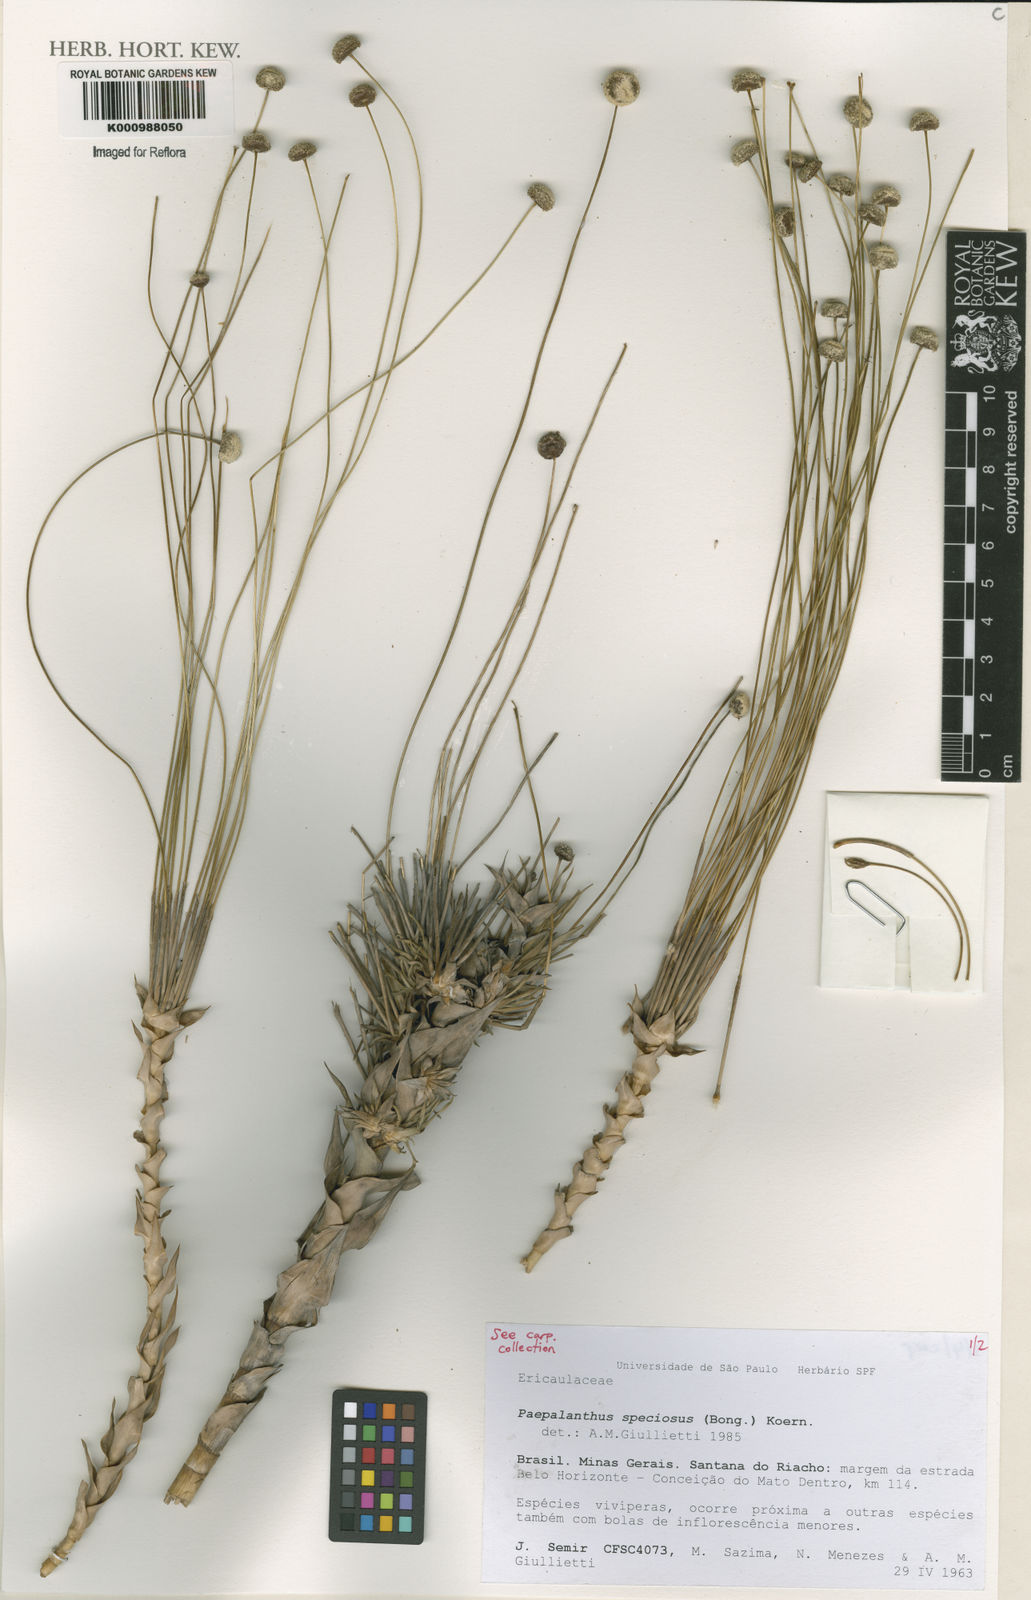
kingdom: Plantae
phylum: Tracheophyta
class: Liliopsida
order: Poales
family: Eriocaulaceae
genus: Paepalanthus
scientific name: Paepalanthus
